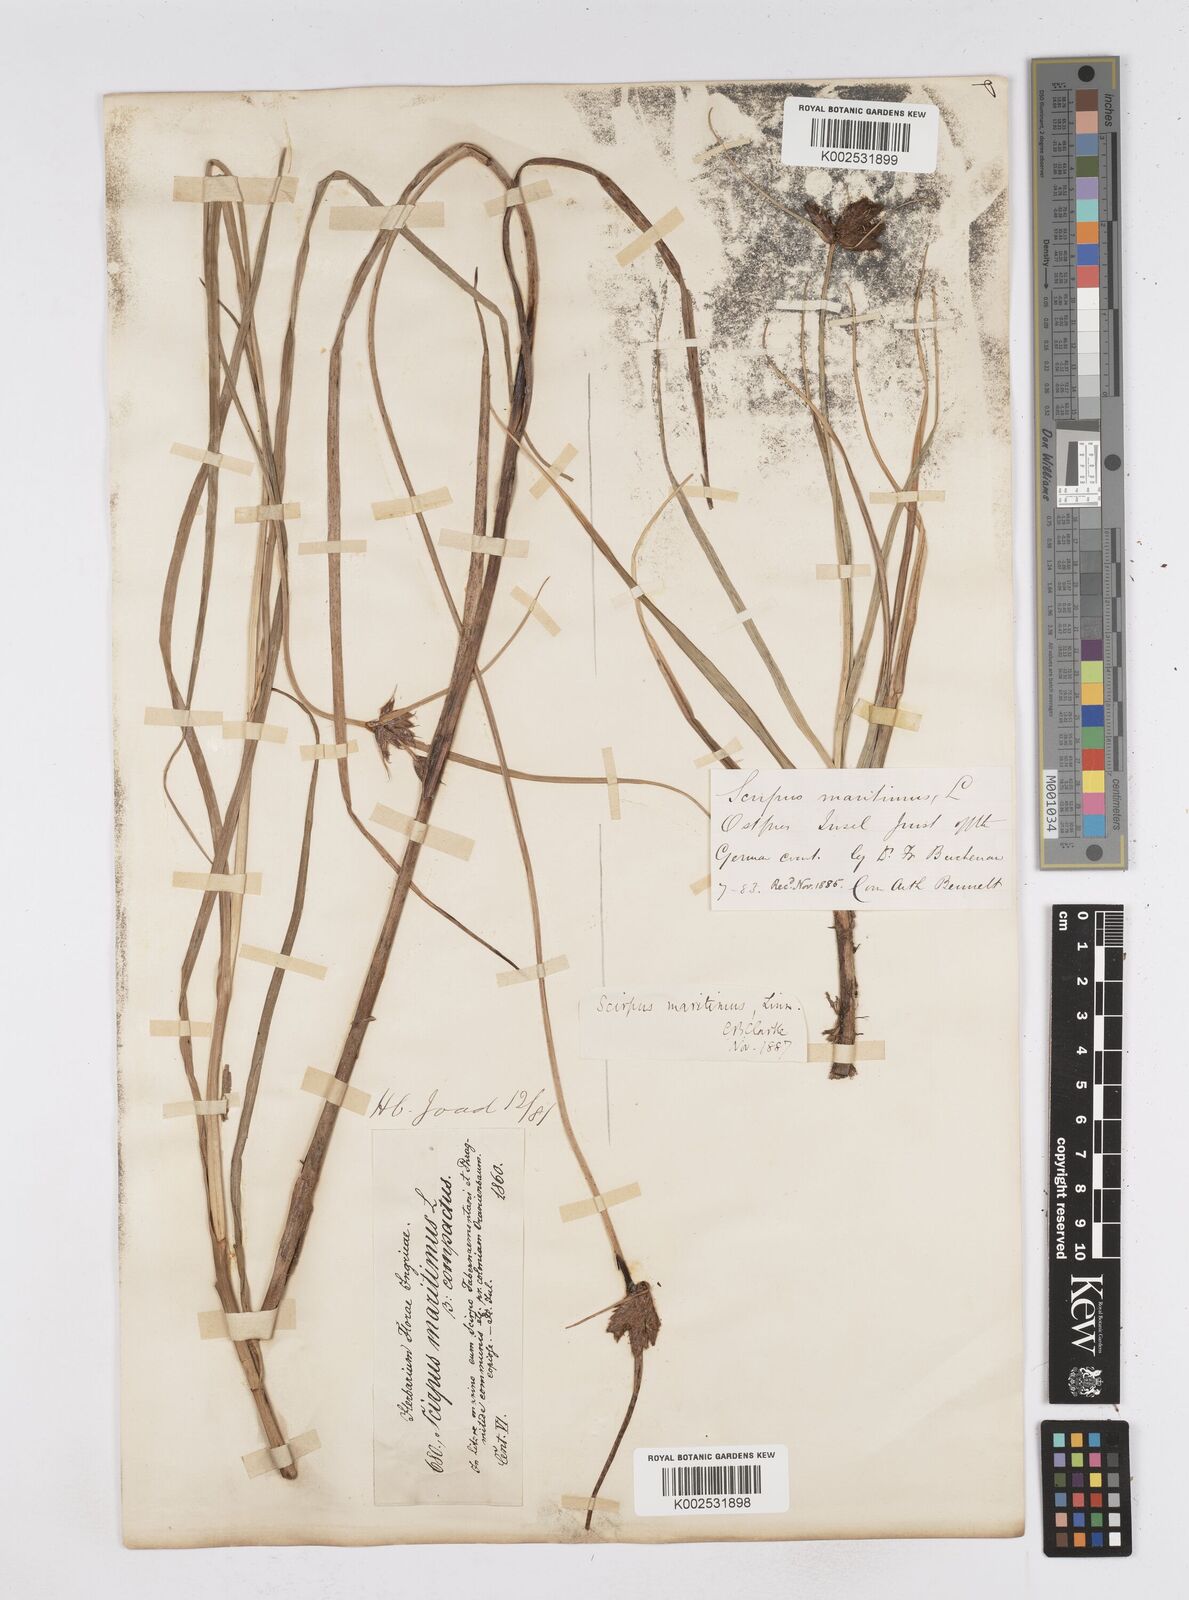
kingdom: Plantae
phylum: Tracheophyta
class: Liliopsida
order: Poales
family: Cyperaceae
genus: Bolboschoenus
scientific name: Bolboschoenus maritimus
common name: Sea club-rush
